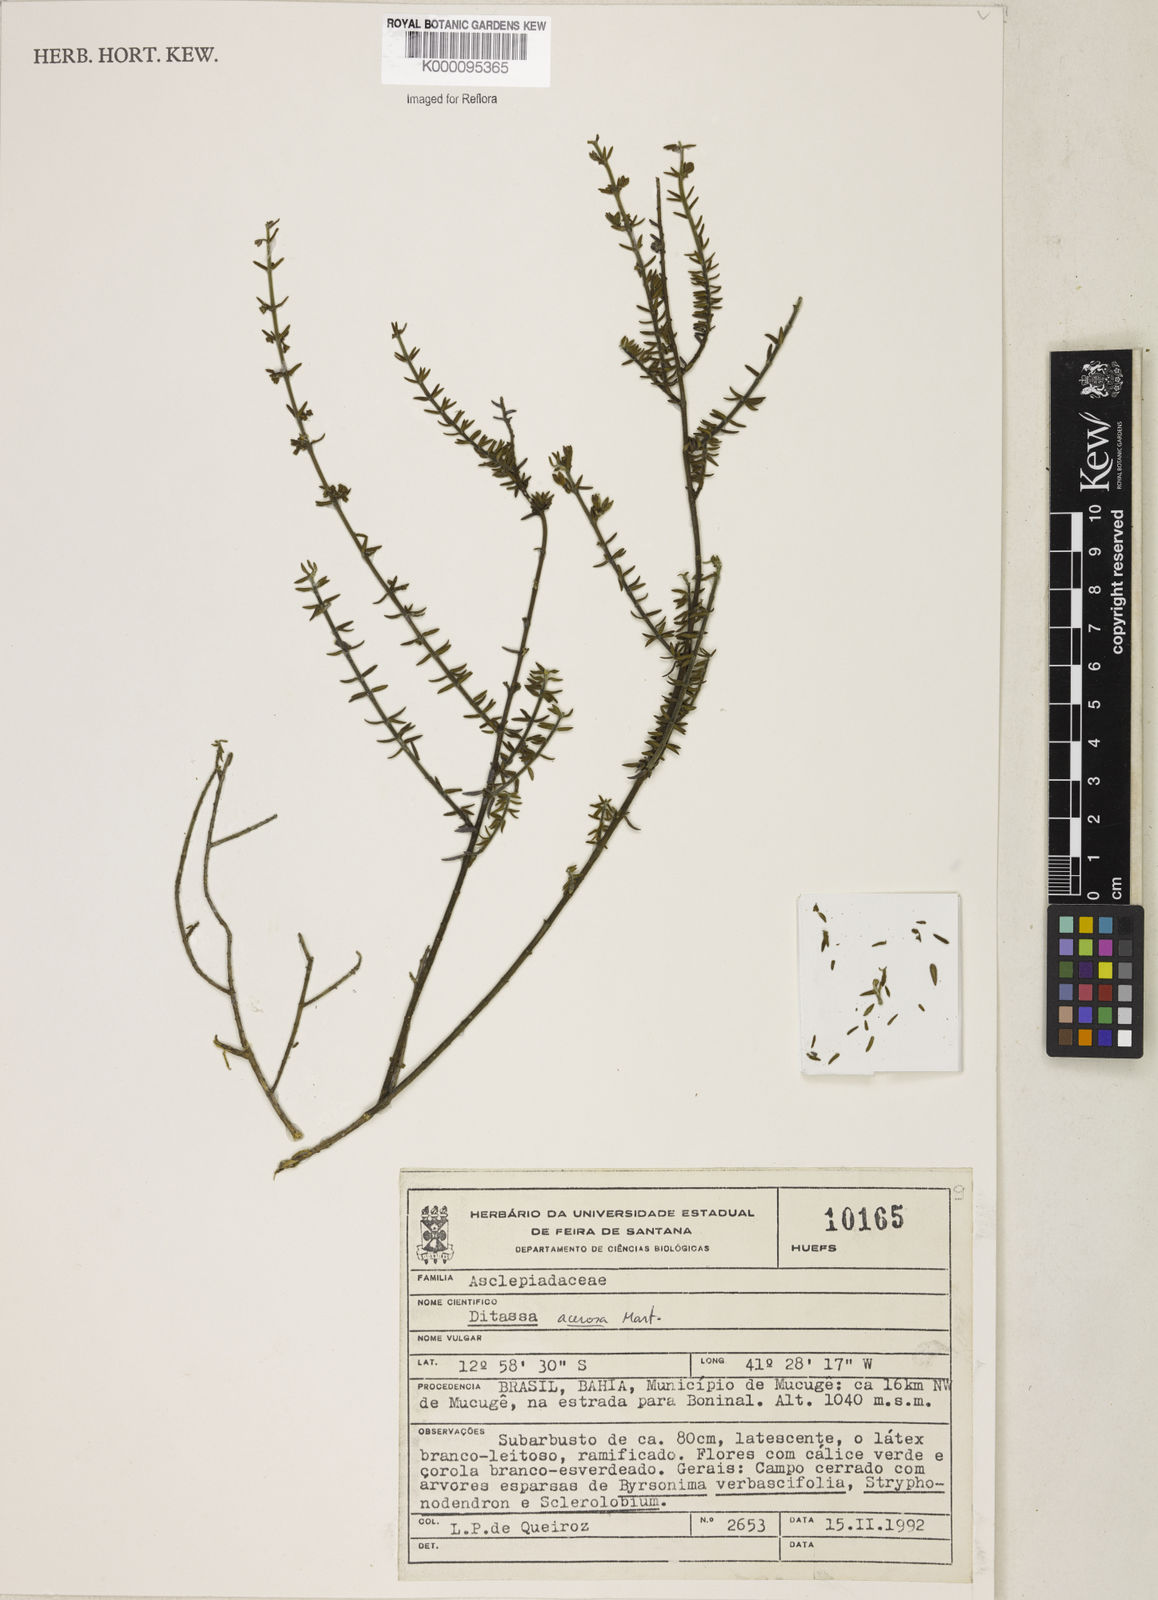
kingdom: Plantae
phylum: Tracheophyta
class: Magnoliopsida
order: Gentianales
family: Apocynaceae
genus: Minaria
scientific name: Minaria acerosa
